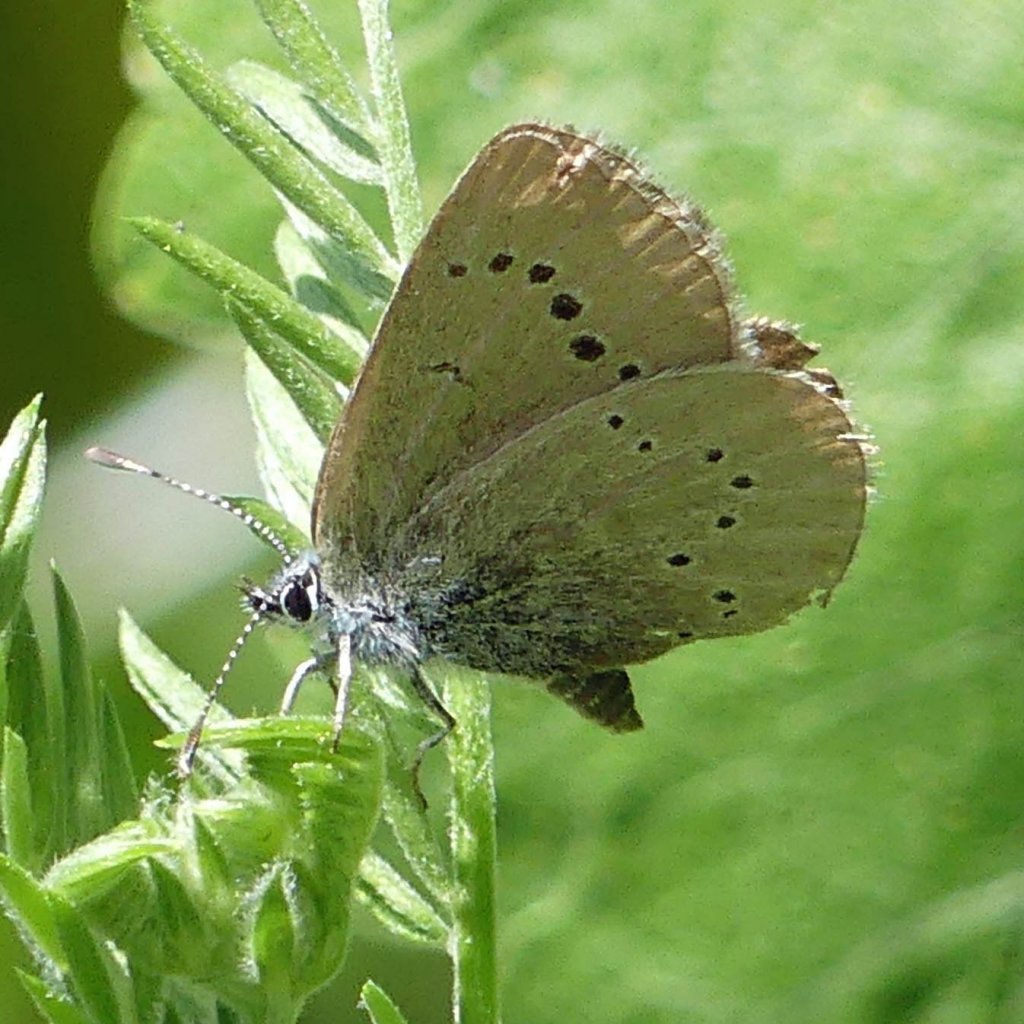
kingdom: Animalia
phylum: Arthropoda
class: Insecta
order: Lepidoptera
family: Lycaenidae
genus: Glaucopsyche
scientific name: Glaucopsyche lygdamus
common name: Silvery Blue
